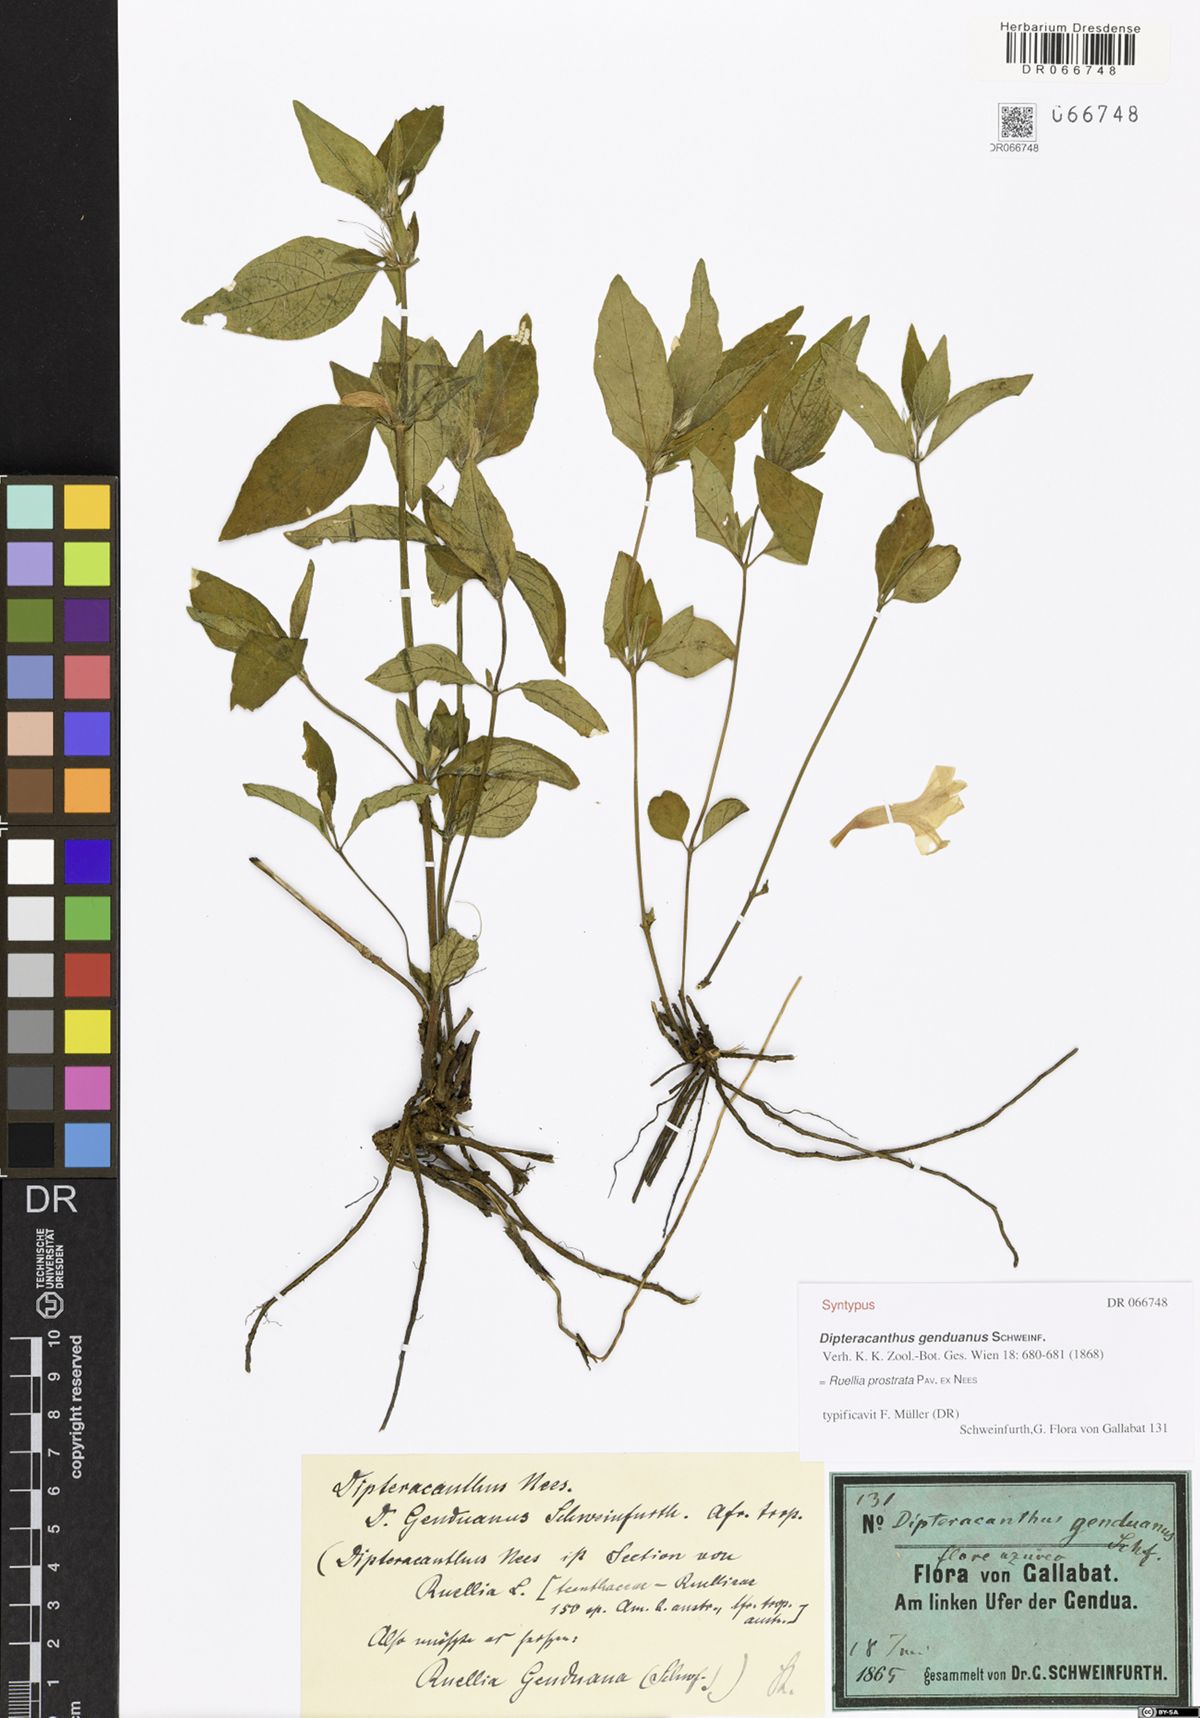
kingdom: Plantae
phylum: Tracheophyta
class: Magnoliopsida
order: Lamiales
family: Acanthaceae
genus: Ruellia
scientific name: Ruellia lactea
